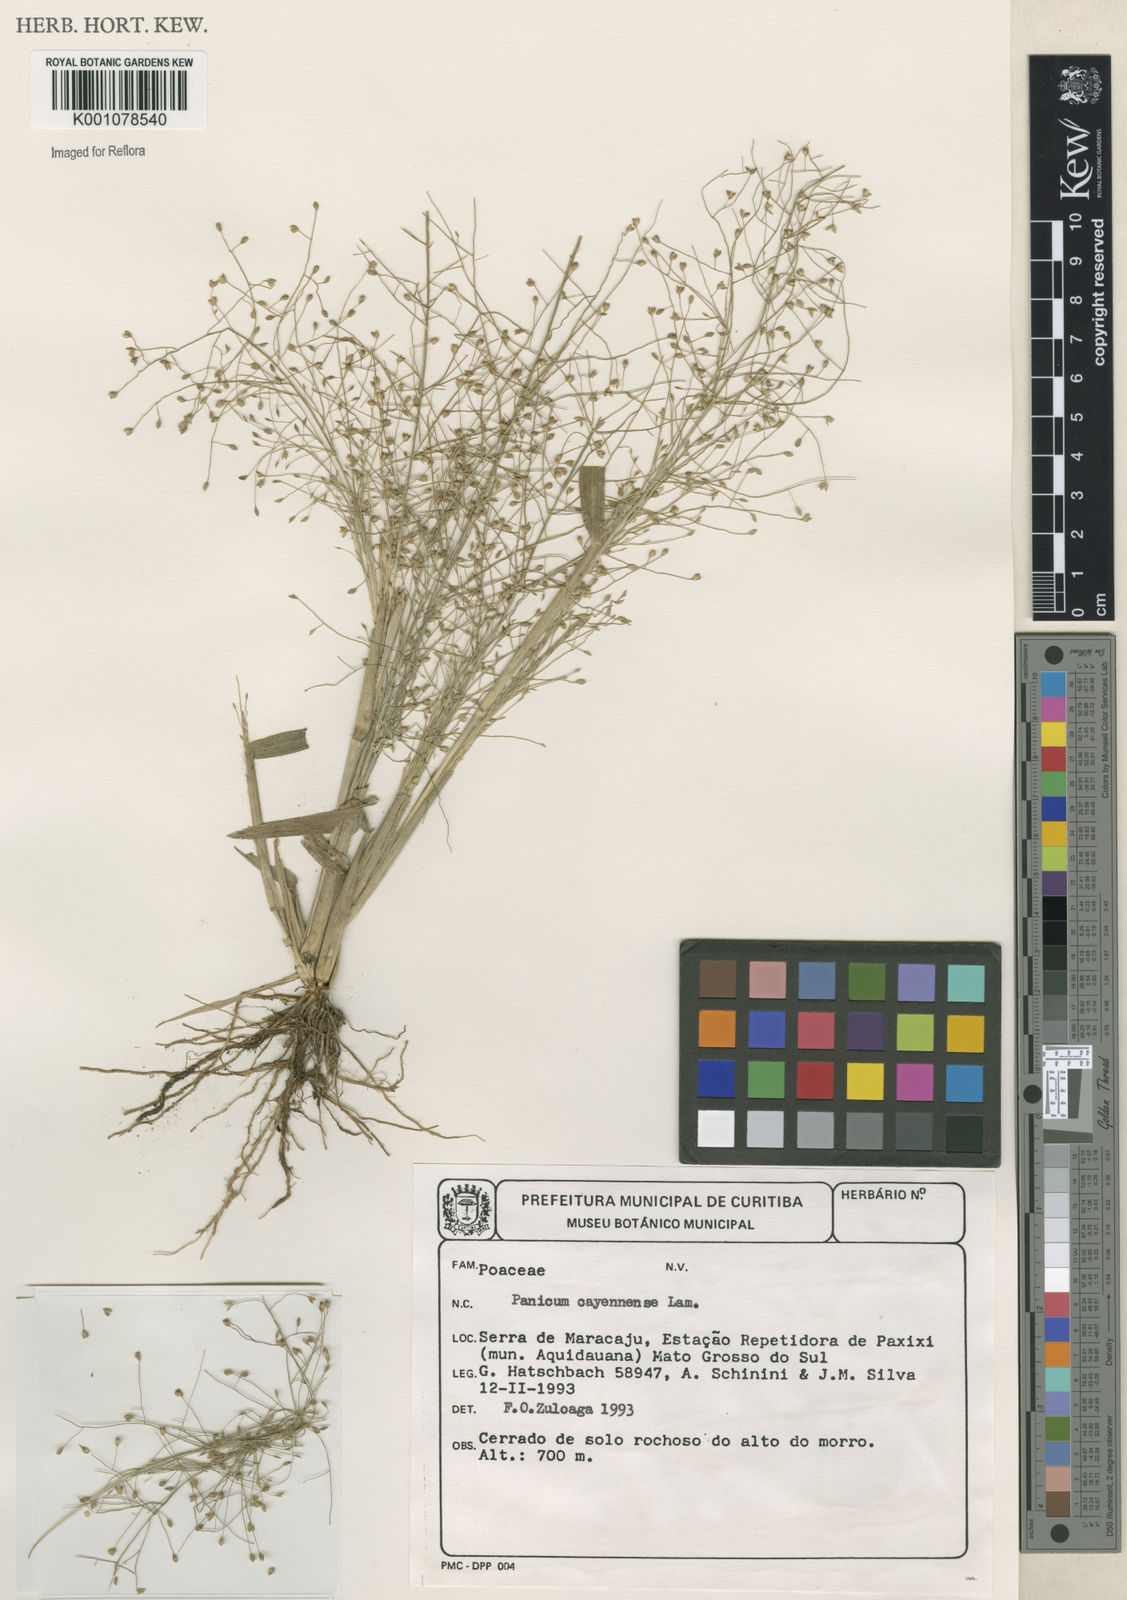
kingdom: Plantae
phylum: Tracheophyta
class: Liliopsida
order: Poales
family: Poaceae
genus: Panicum
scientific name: Panicum cayennense
